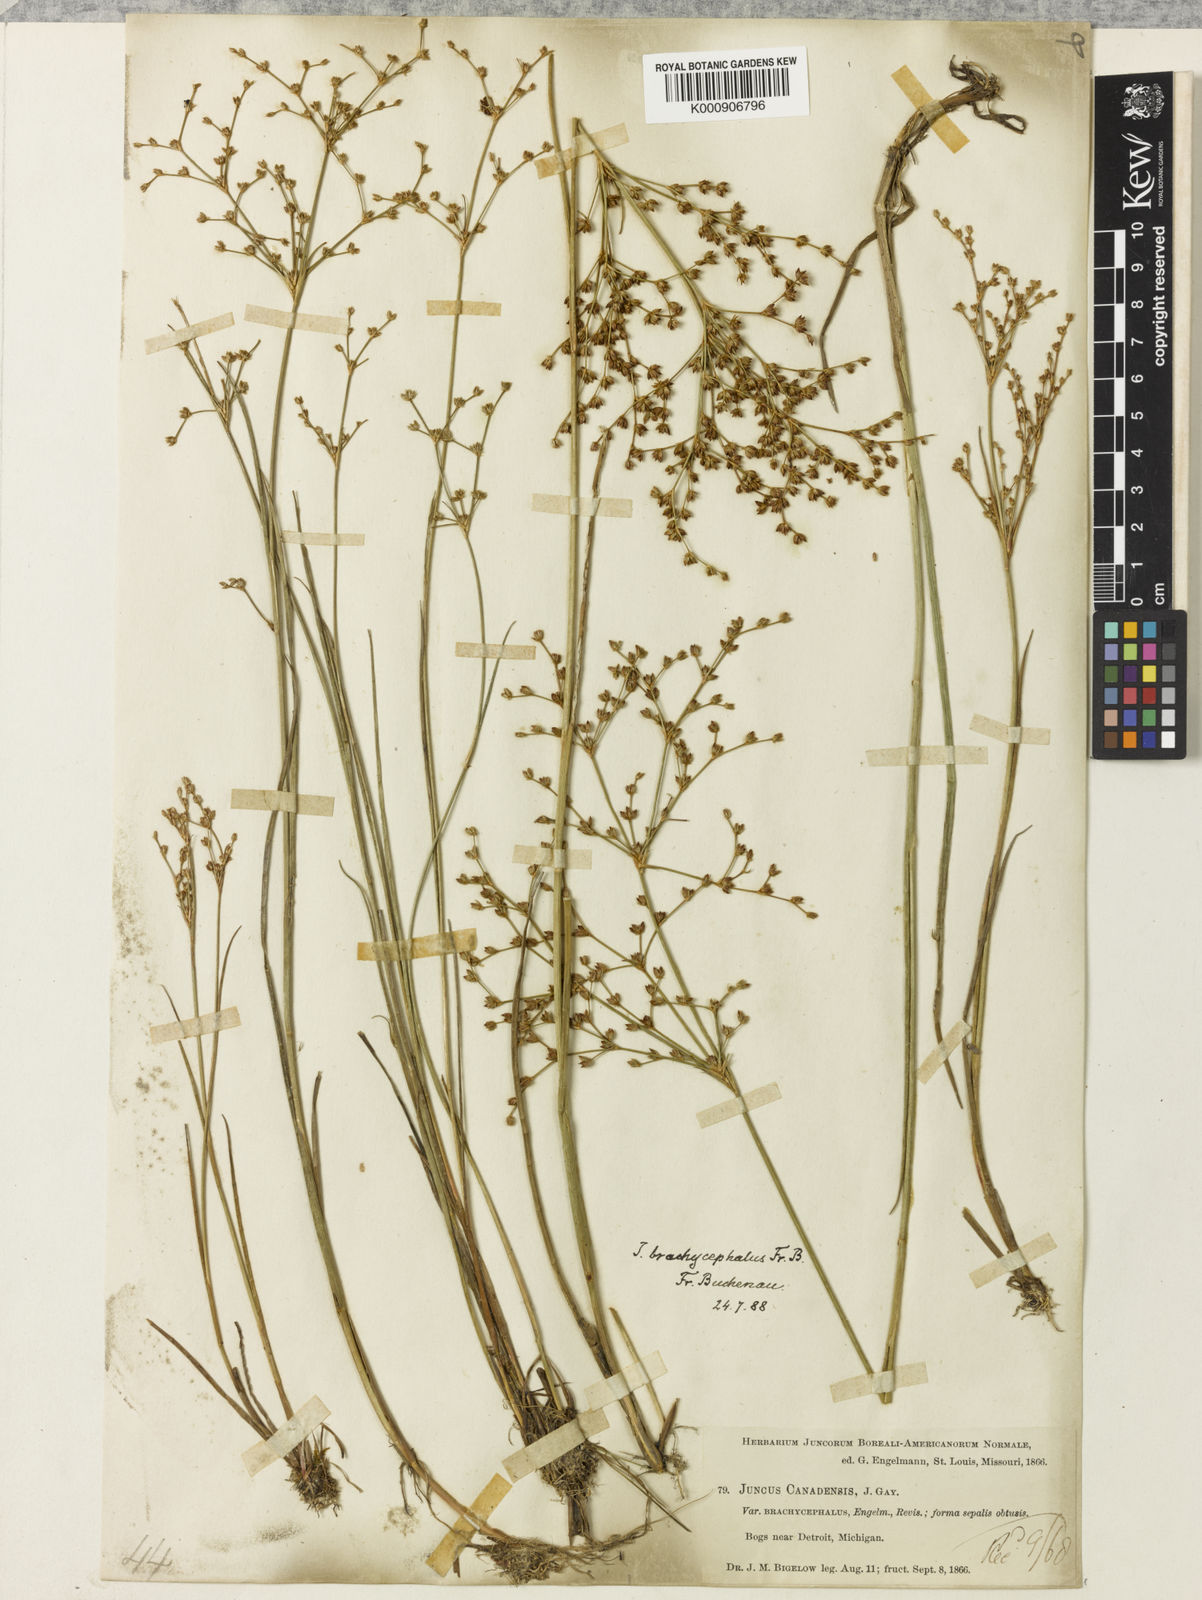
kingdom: Plantae
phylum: Tracheophyta
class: Liliopsida
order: Poales
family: Juncaceae
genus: Juncus
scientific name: Juncus
